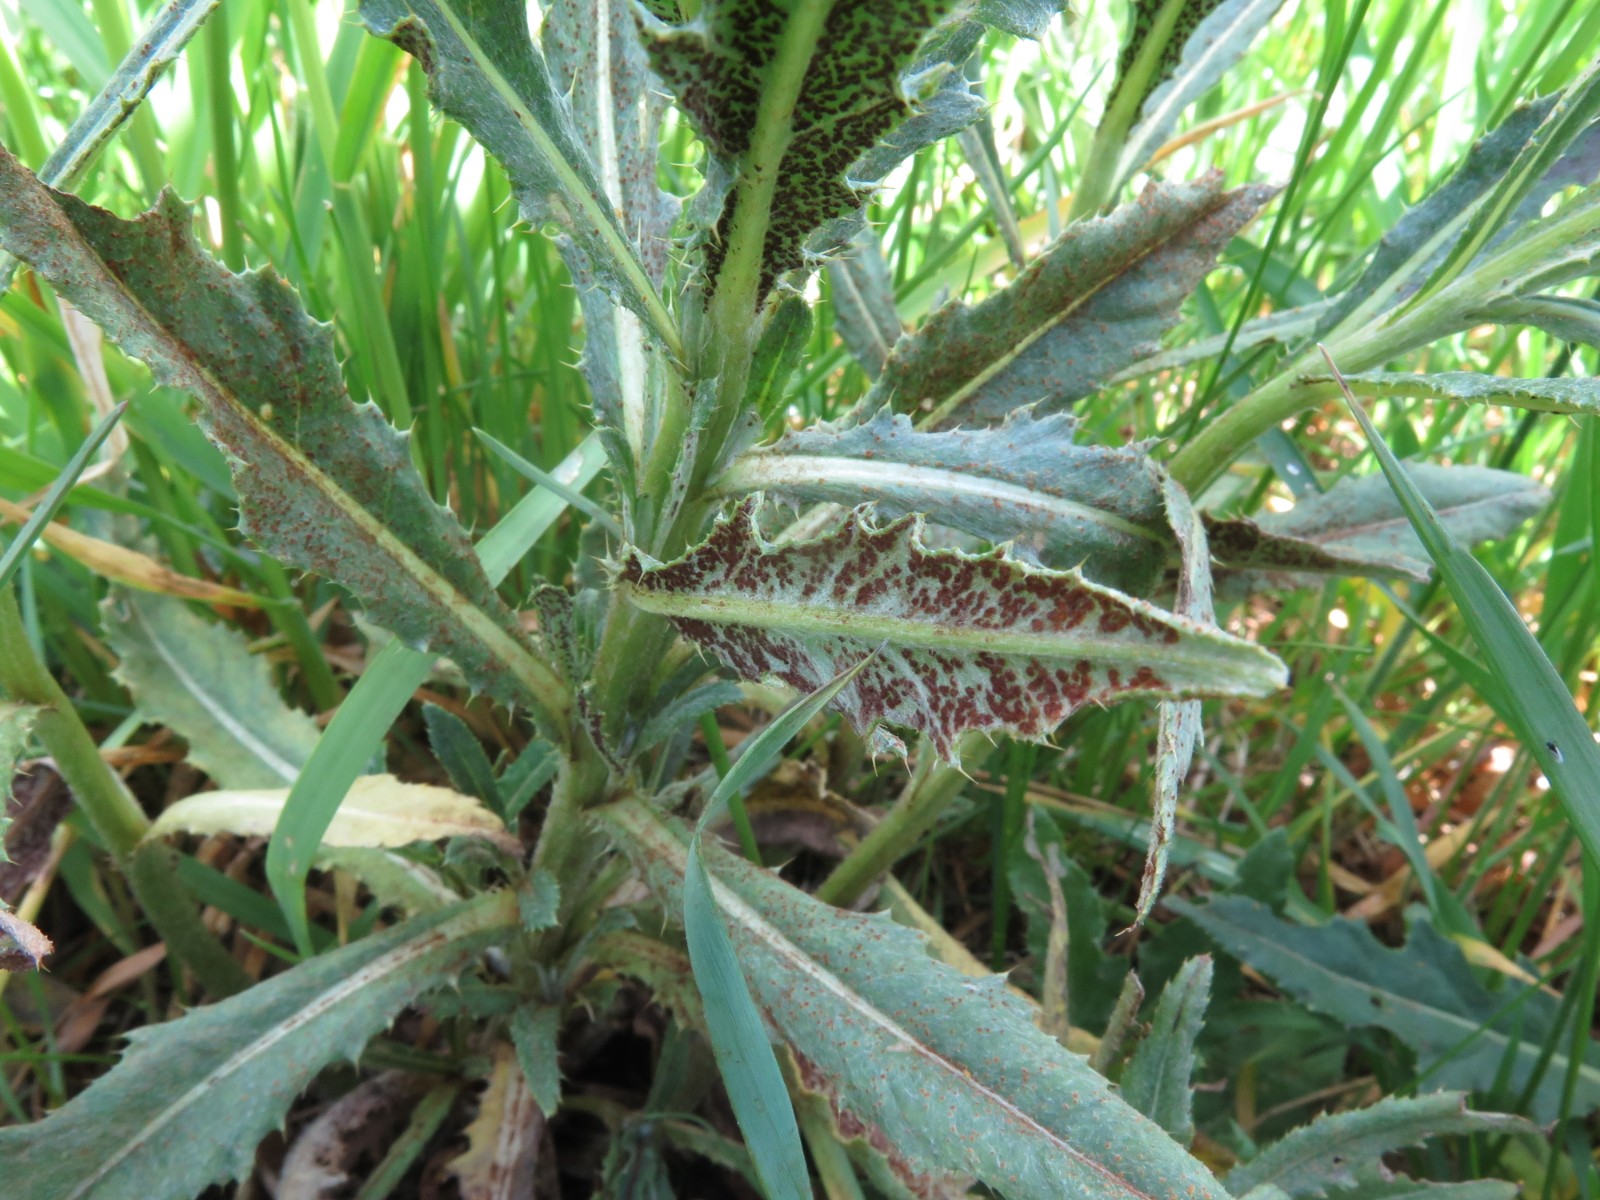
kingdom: Fungi
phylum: Basidiomycota
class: Pucciniomycetes
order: Pucciniales
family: Pucciniaceae
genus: Puccinia
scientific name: Puccinia suaveolens
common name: tidsel-tvecellerust
